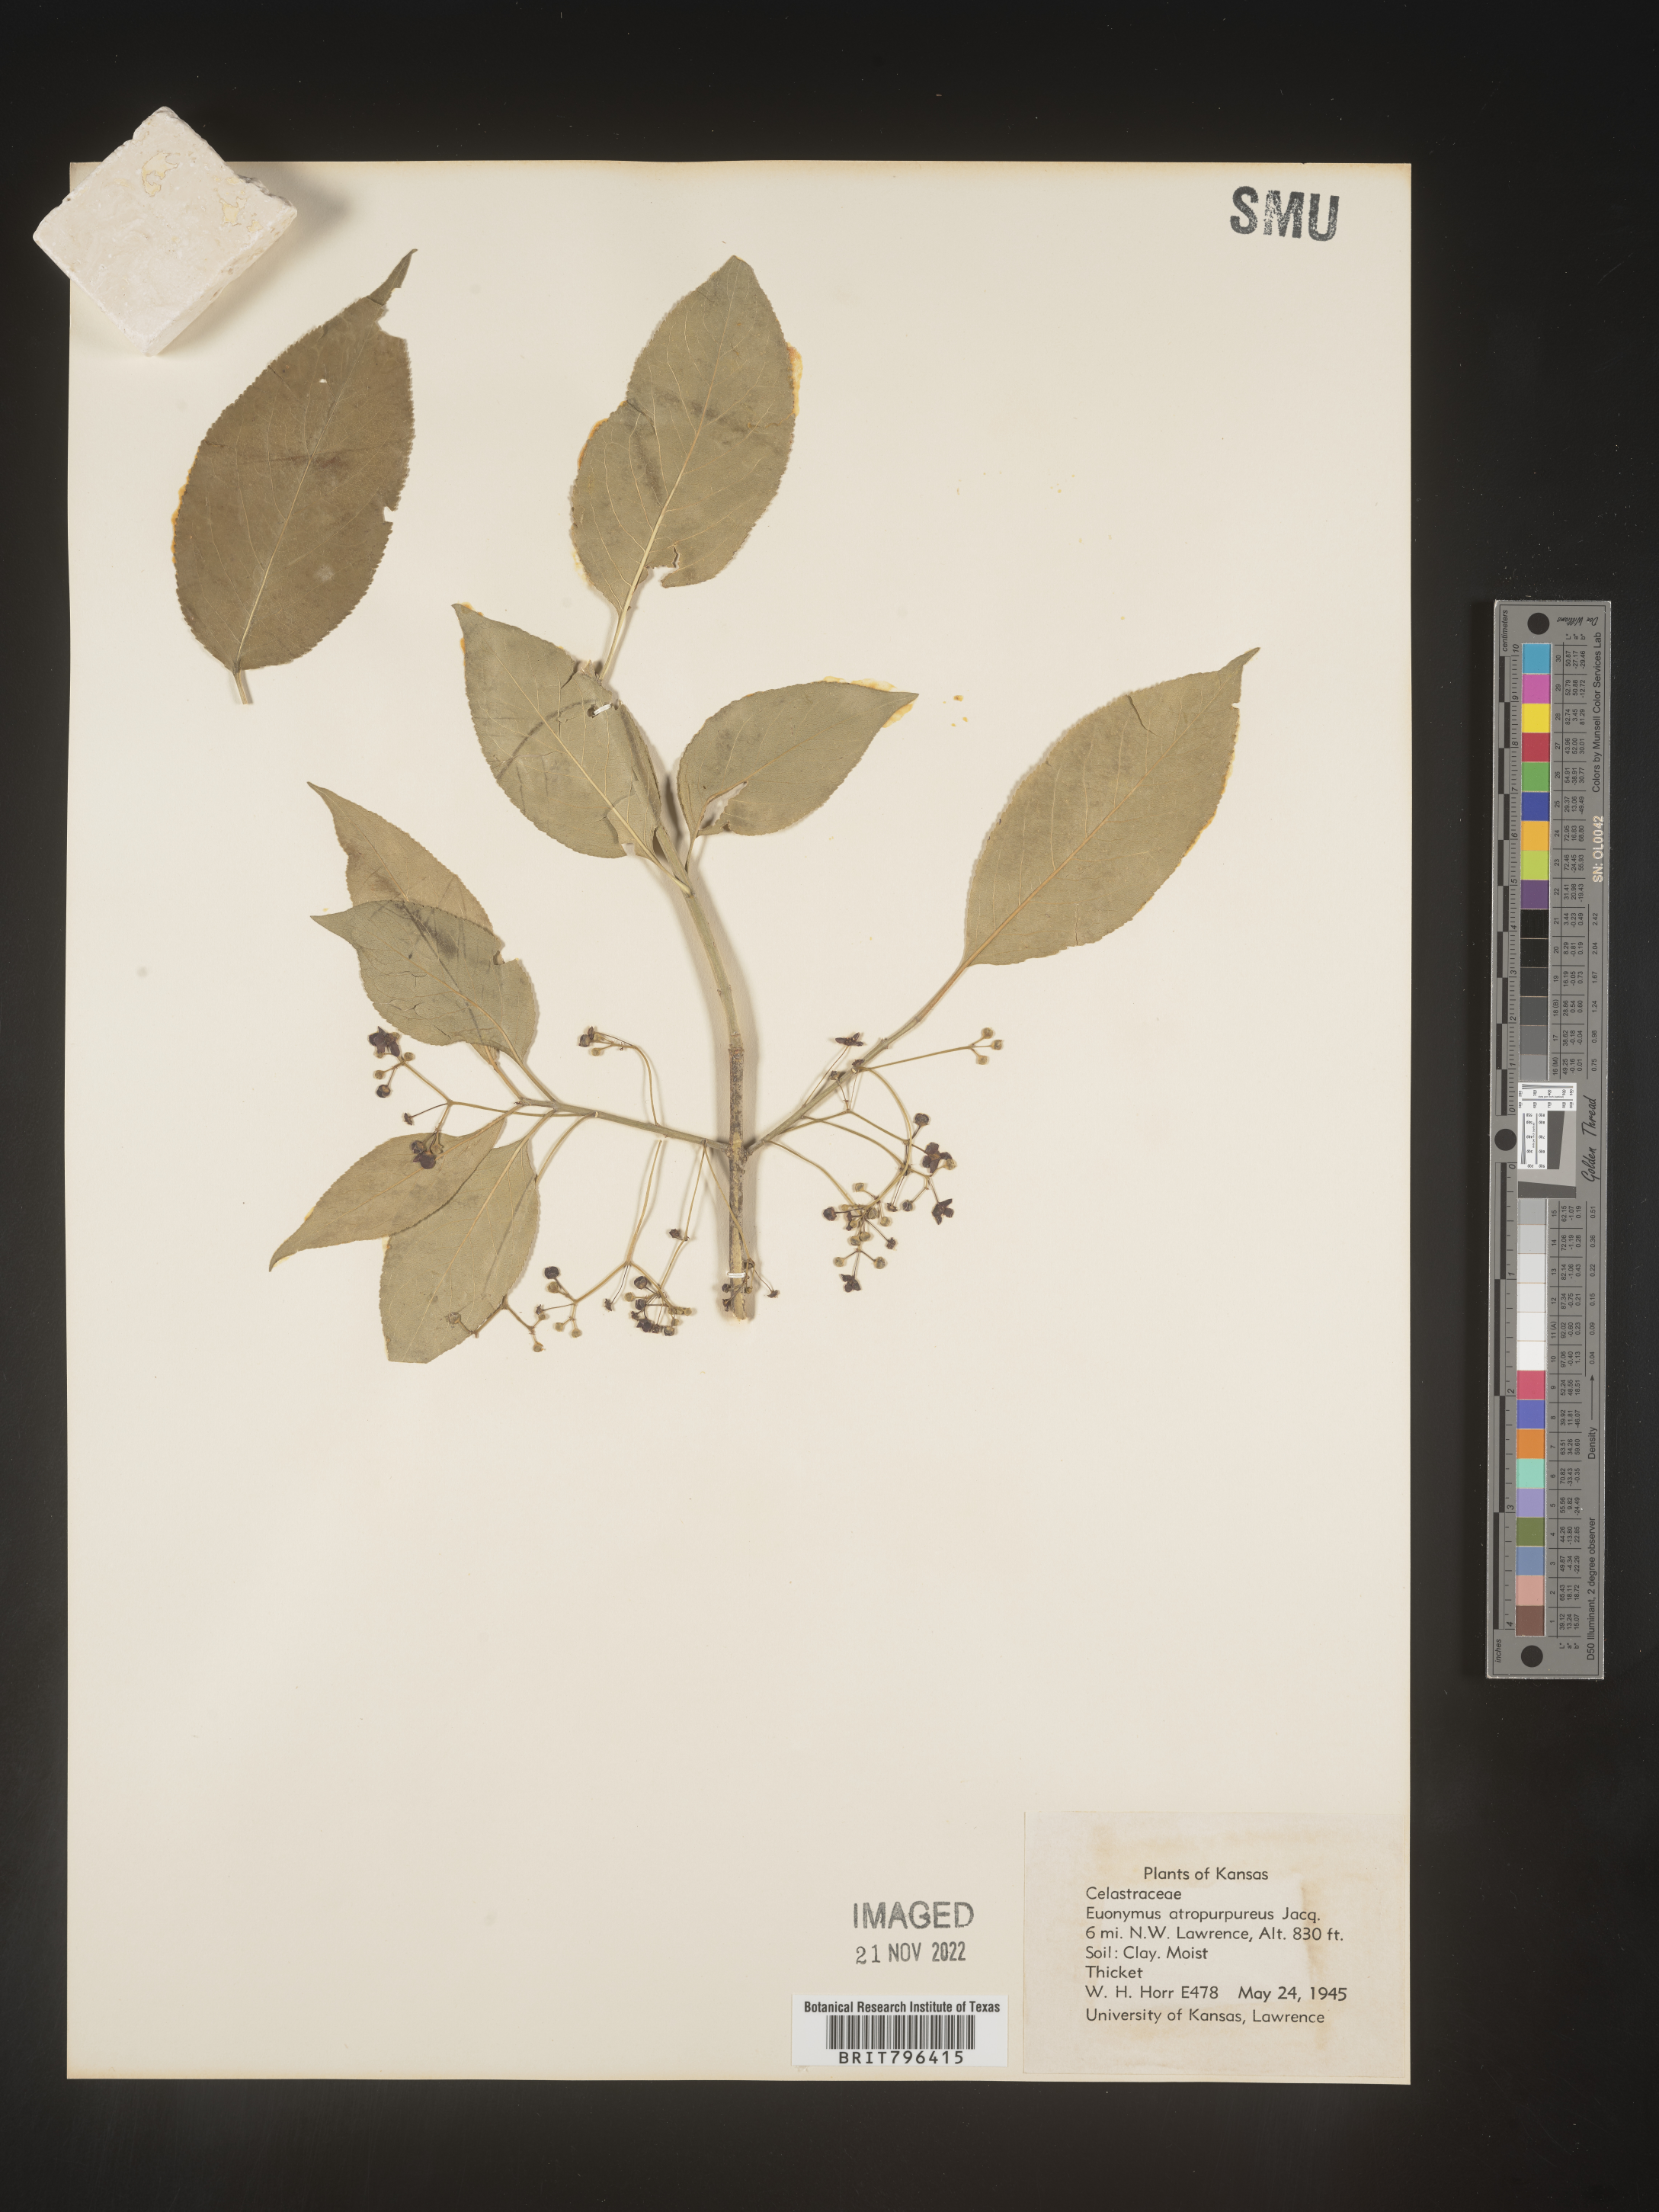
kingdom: Plantae
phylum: Tracheophyta
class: Magnoliopsida
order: Celastrales
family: Celastraceae
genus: Euonymus
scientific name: Euonymus atropurpureus
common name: Eastern wahoo
